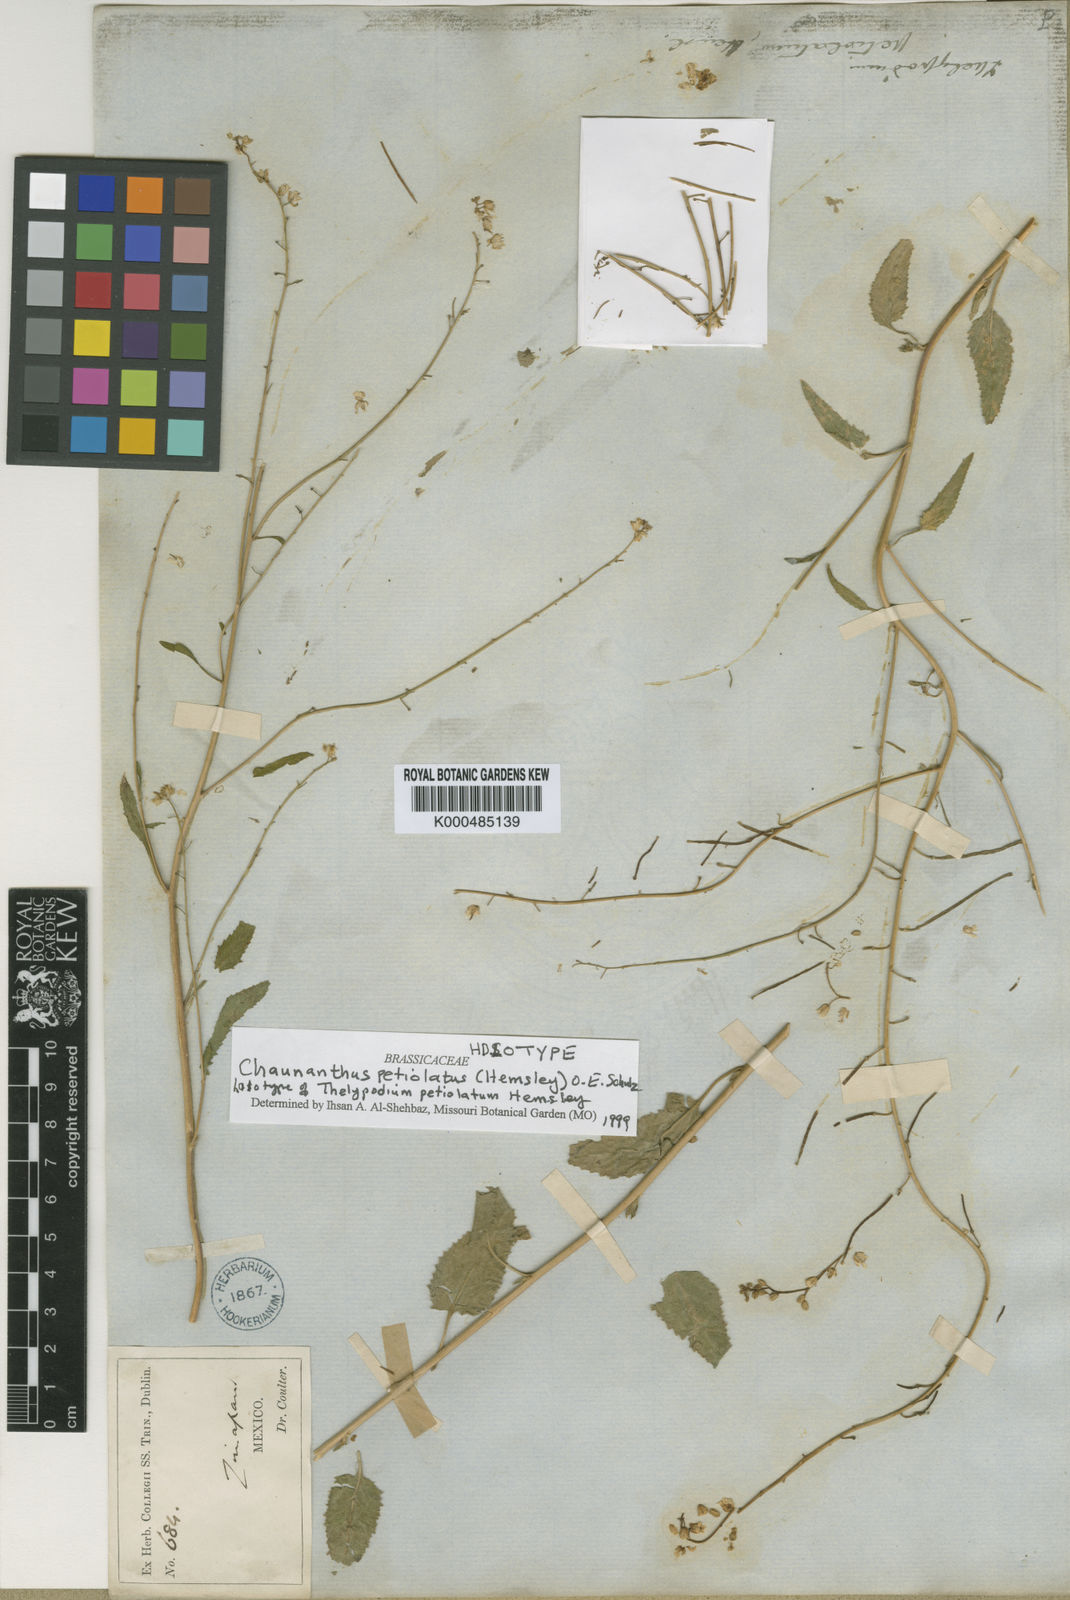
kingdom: Plantae
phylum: Tracheophyta
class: Magnoliopsida
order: Brassicales
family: Brassicaceae
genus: Chaunanthus
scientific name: Chaunanthus petiolatus
